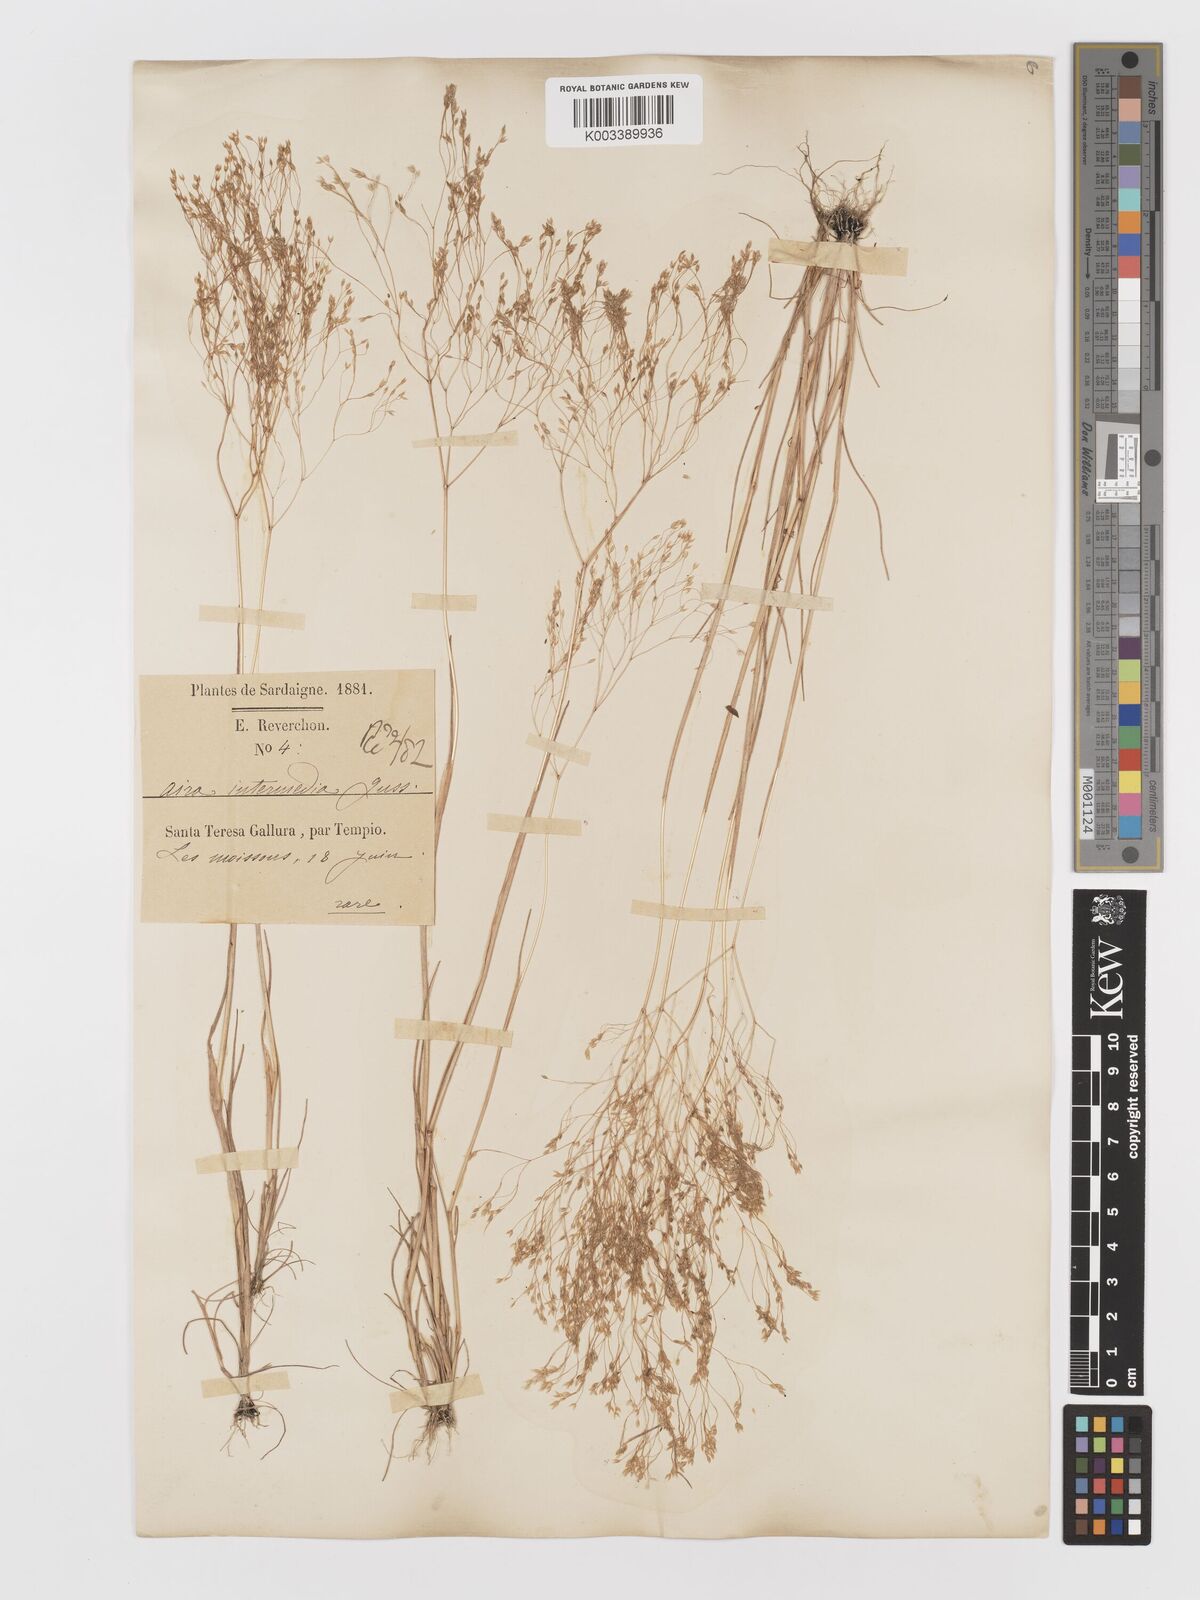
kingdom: Plantae
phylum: Tracheophyta
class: Liliopsida
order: Poales
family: Poaceae
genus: Aira
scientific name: Aira
